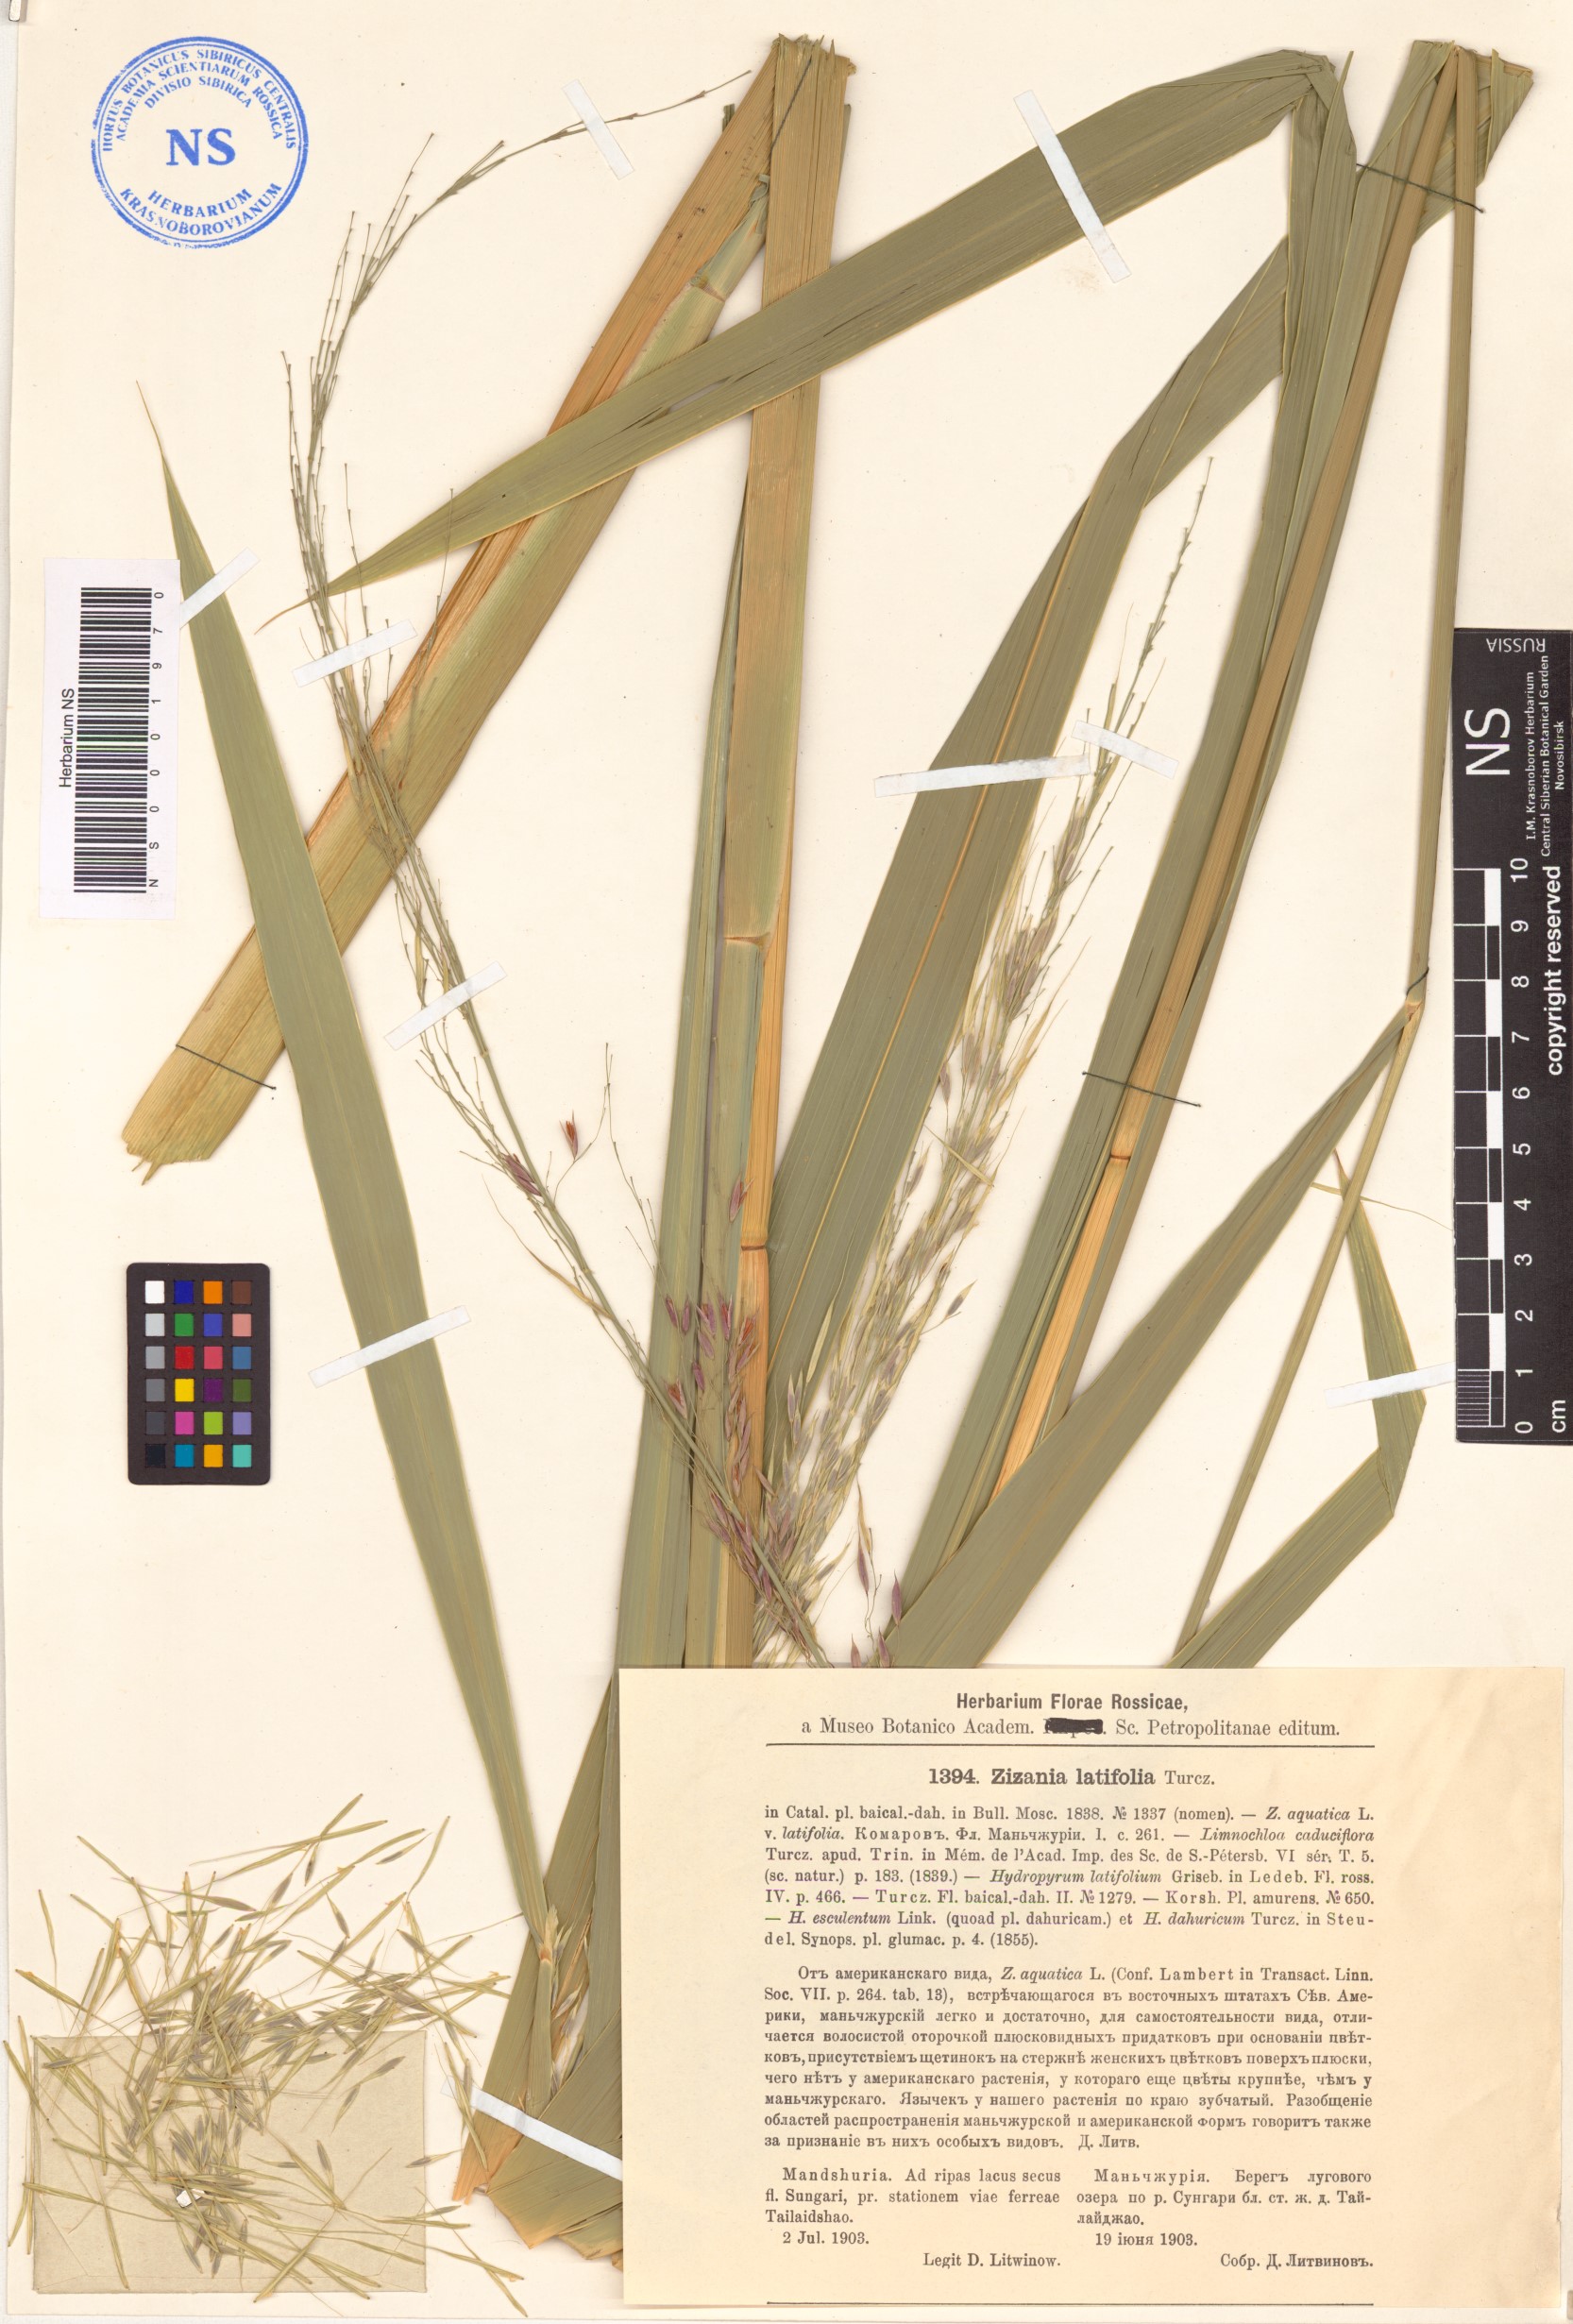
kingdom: Plantae
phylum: Tracheophyta
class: Liliopsida
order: Poales
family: Poaceae
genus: Zizania
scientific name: Zizania latifolia
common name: Manchurian wildrice
